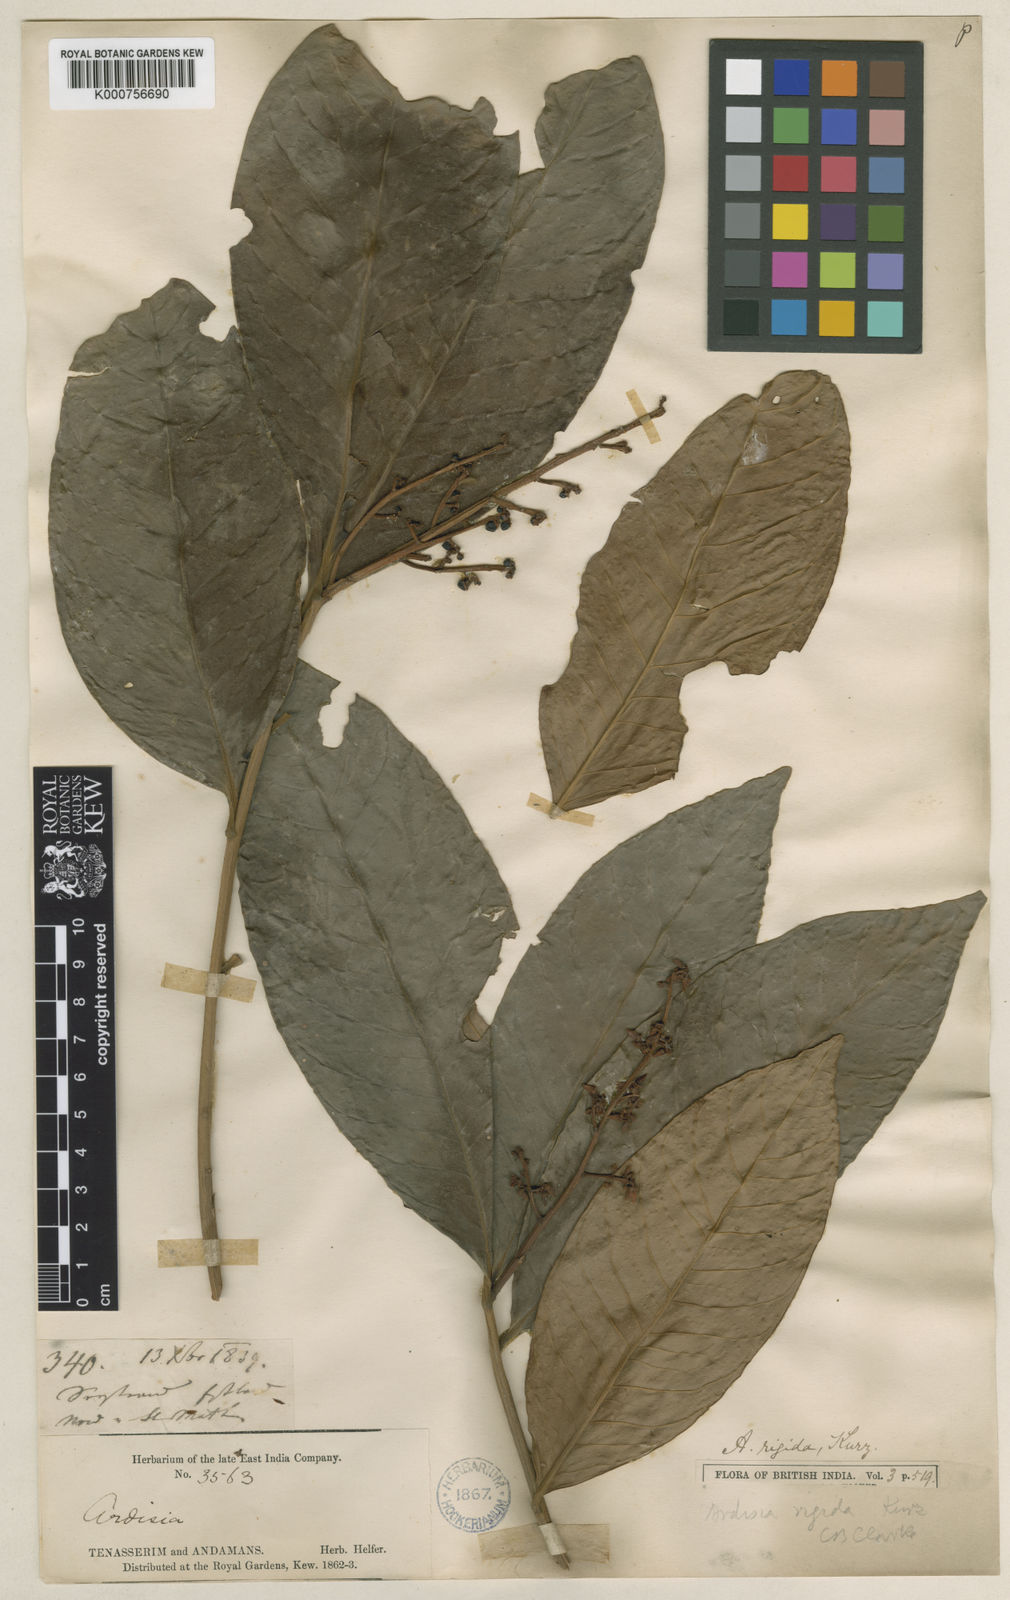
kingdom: Plantae
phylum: Tracheophyta
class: Magnoliopsida
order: Ericales
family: Primulaceae
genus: Ardisia
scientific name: Ardisia rigida
